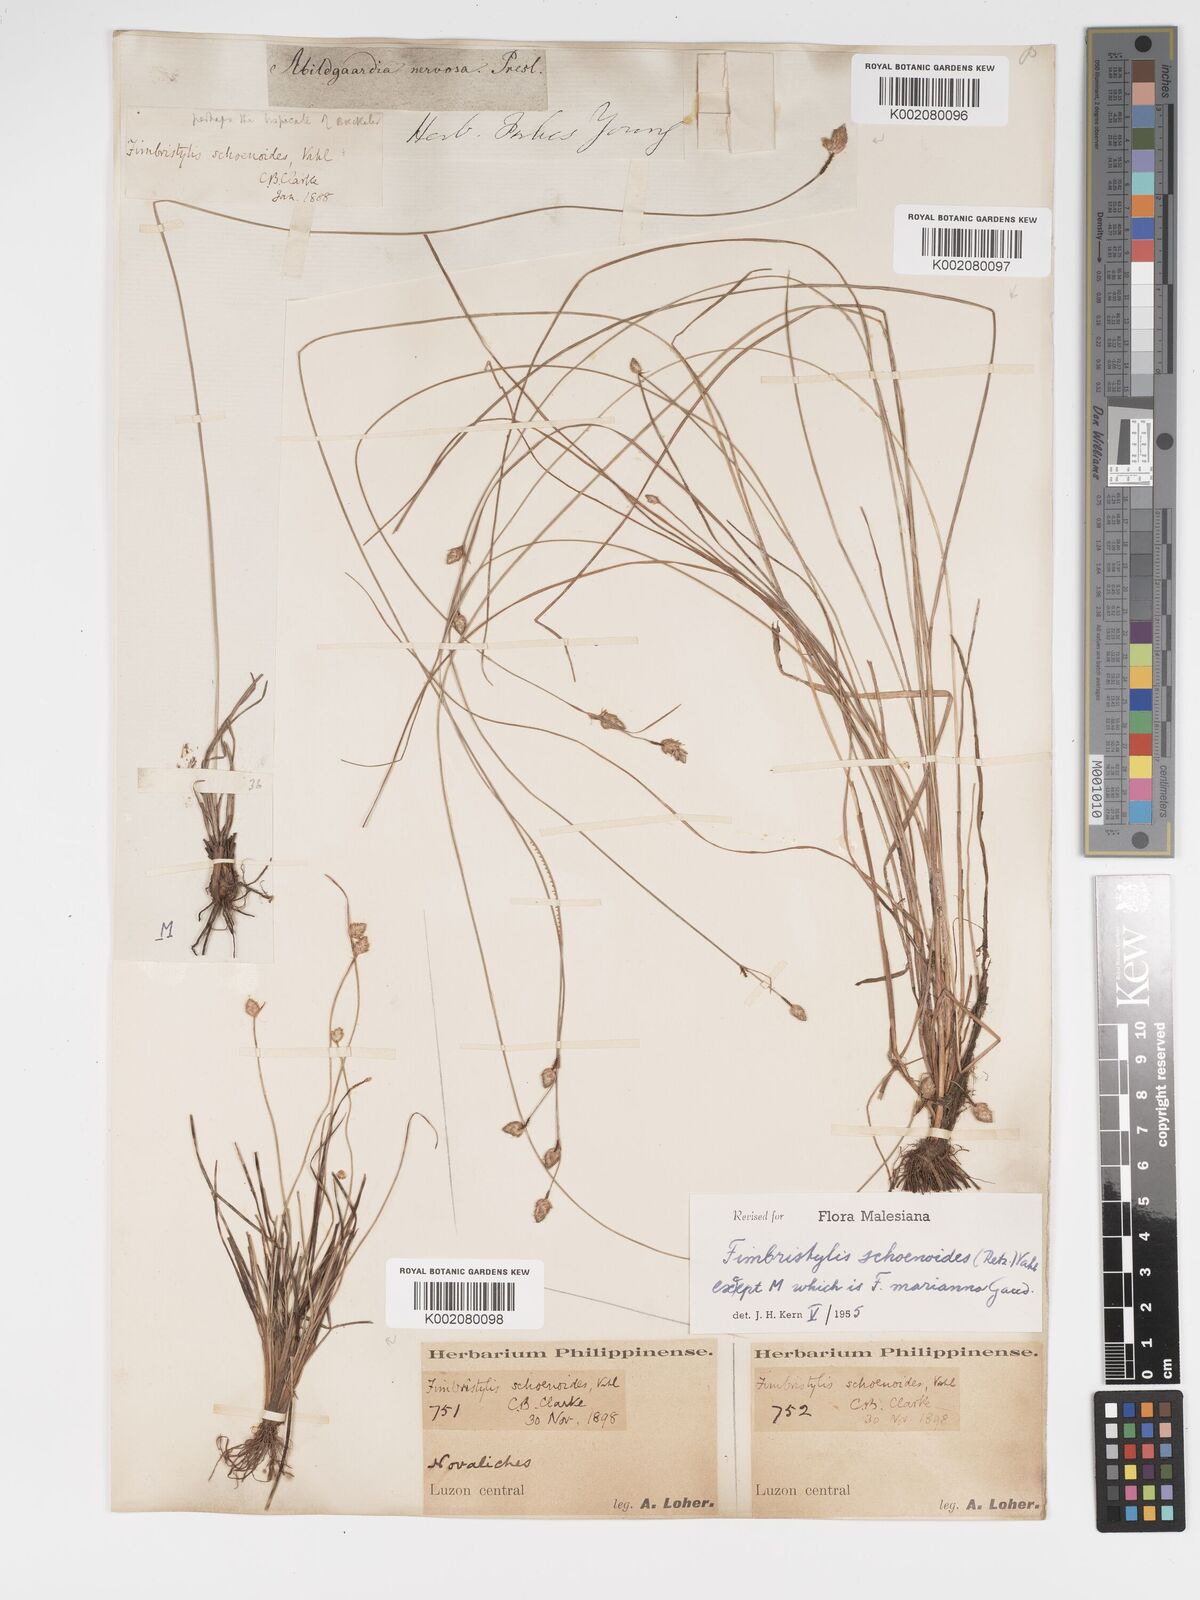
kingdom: Plantae
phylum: Tracheophyta
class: Liliopsida
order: Poales
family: Cyperaceae
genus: Fimbristylis
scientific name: Fimbristylis schoenoides
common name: Ditch fimbry
